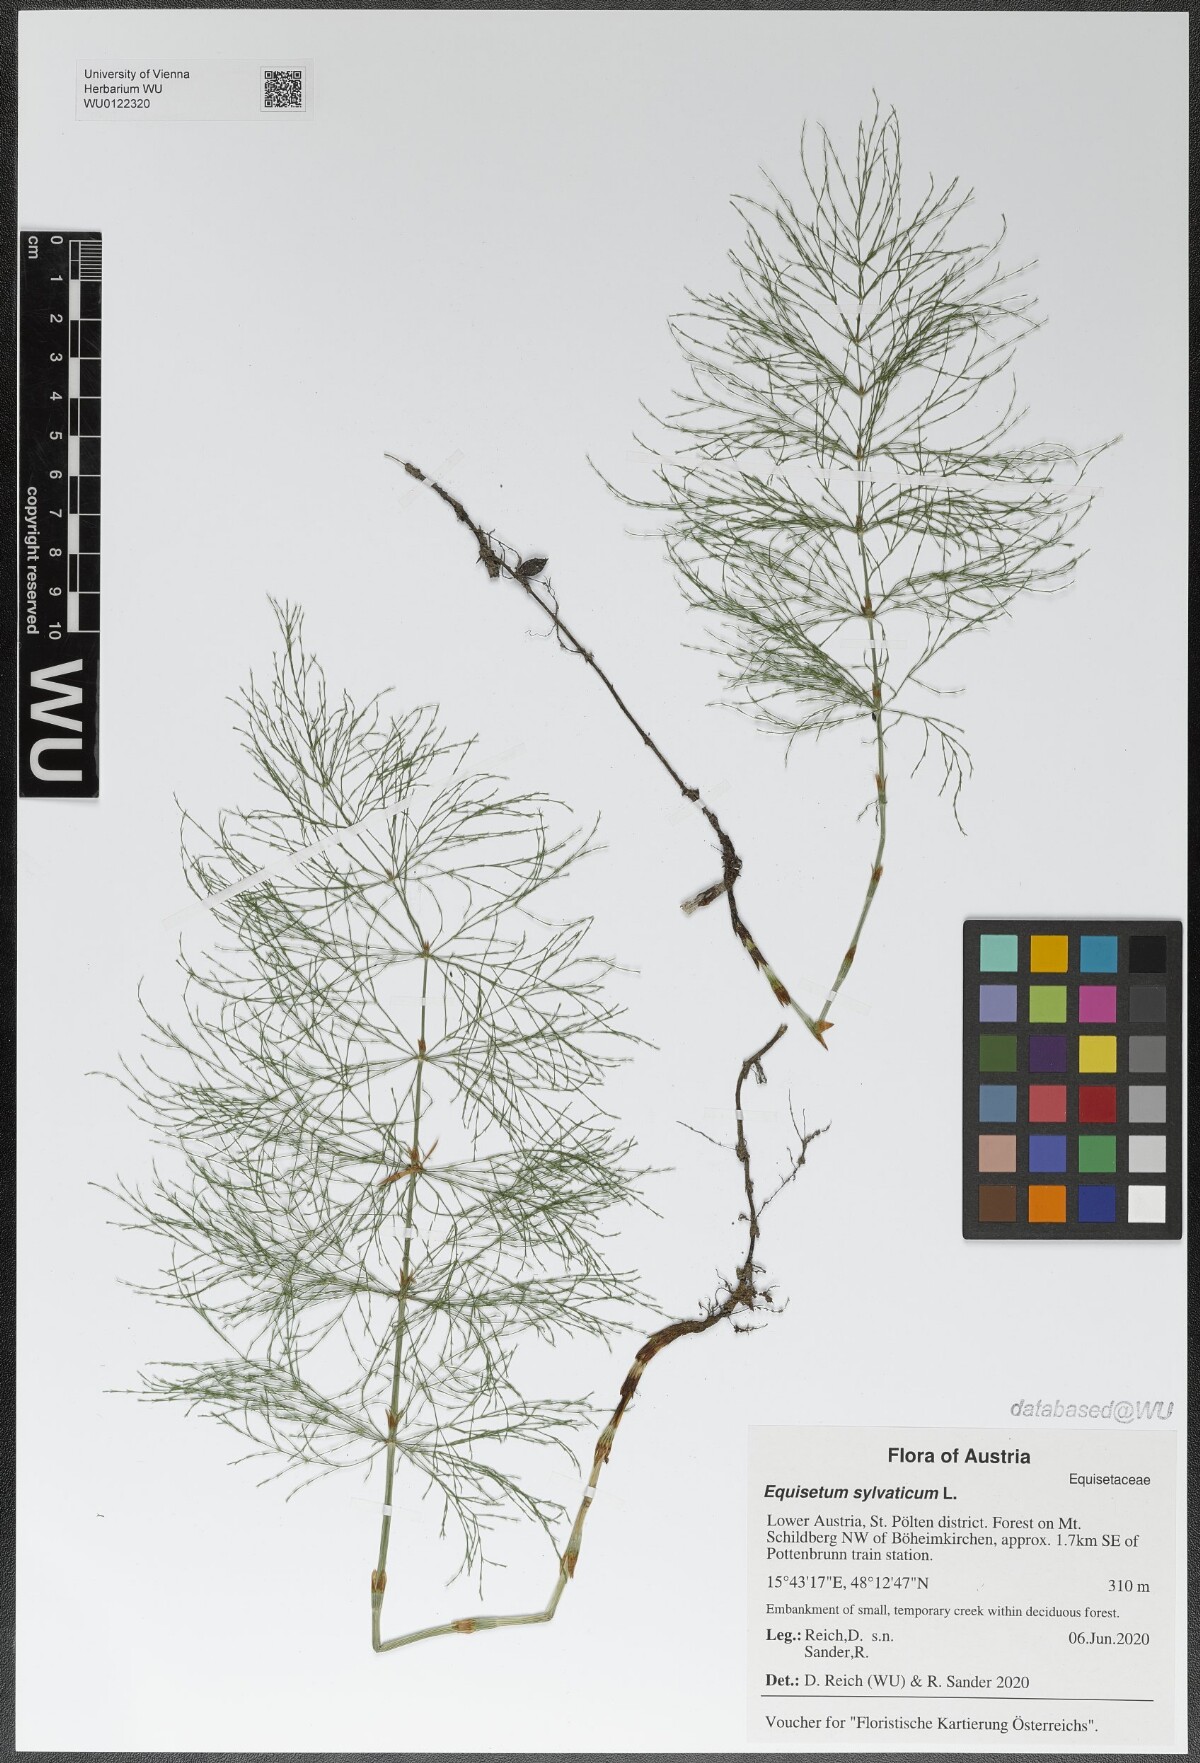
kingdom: Plantae
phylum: Tracheophyta
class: Polypodiopsida
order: Equisetales
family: Equisetaceae
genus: Equisetum
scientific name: Equisetum sylvaticum
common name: Wood horsetail
